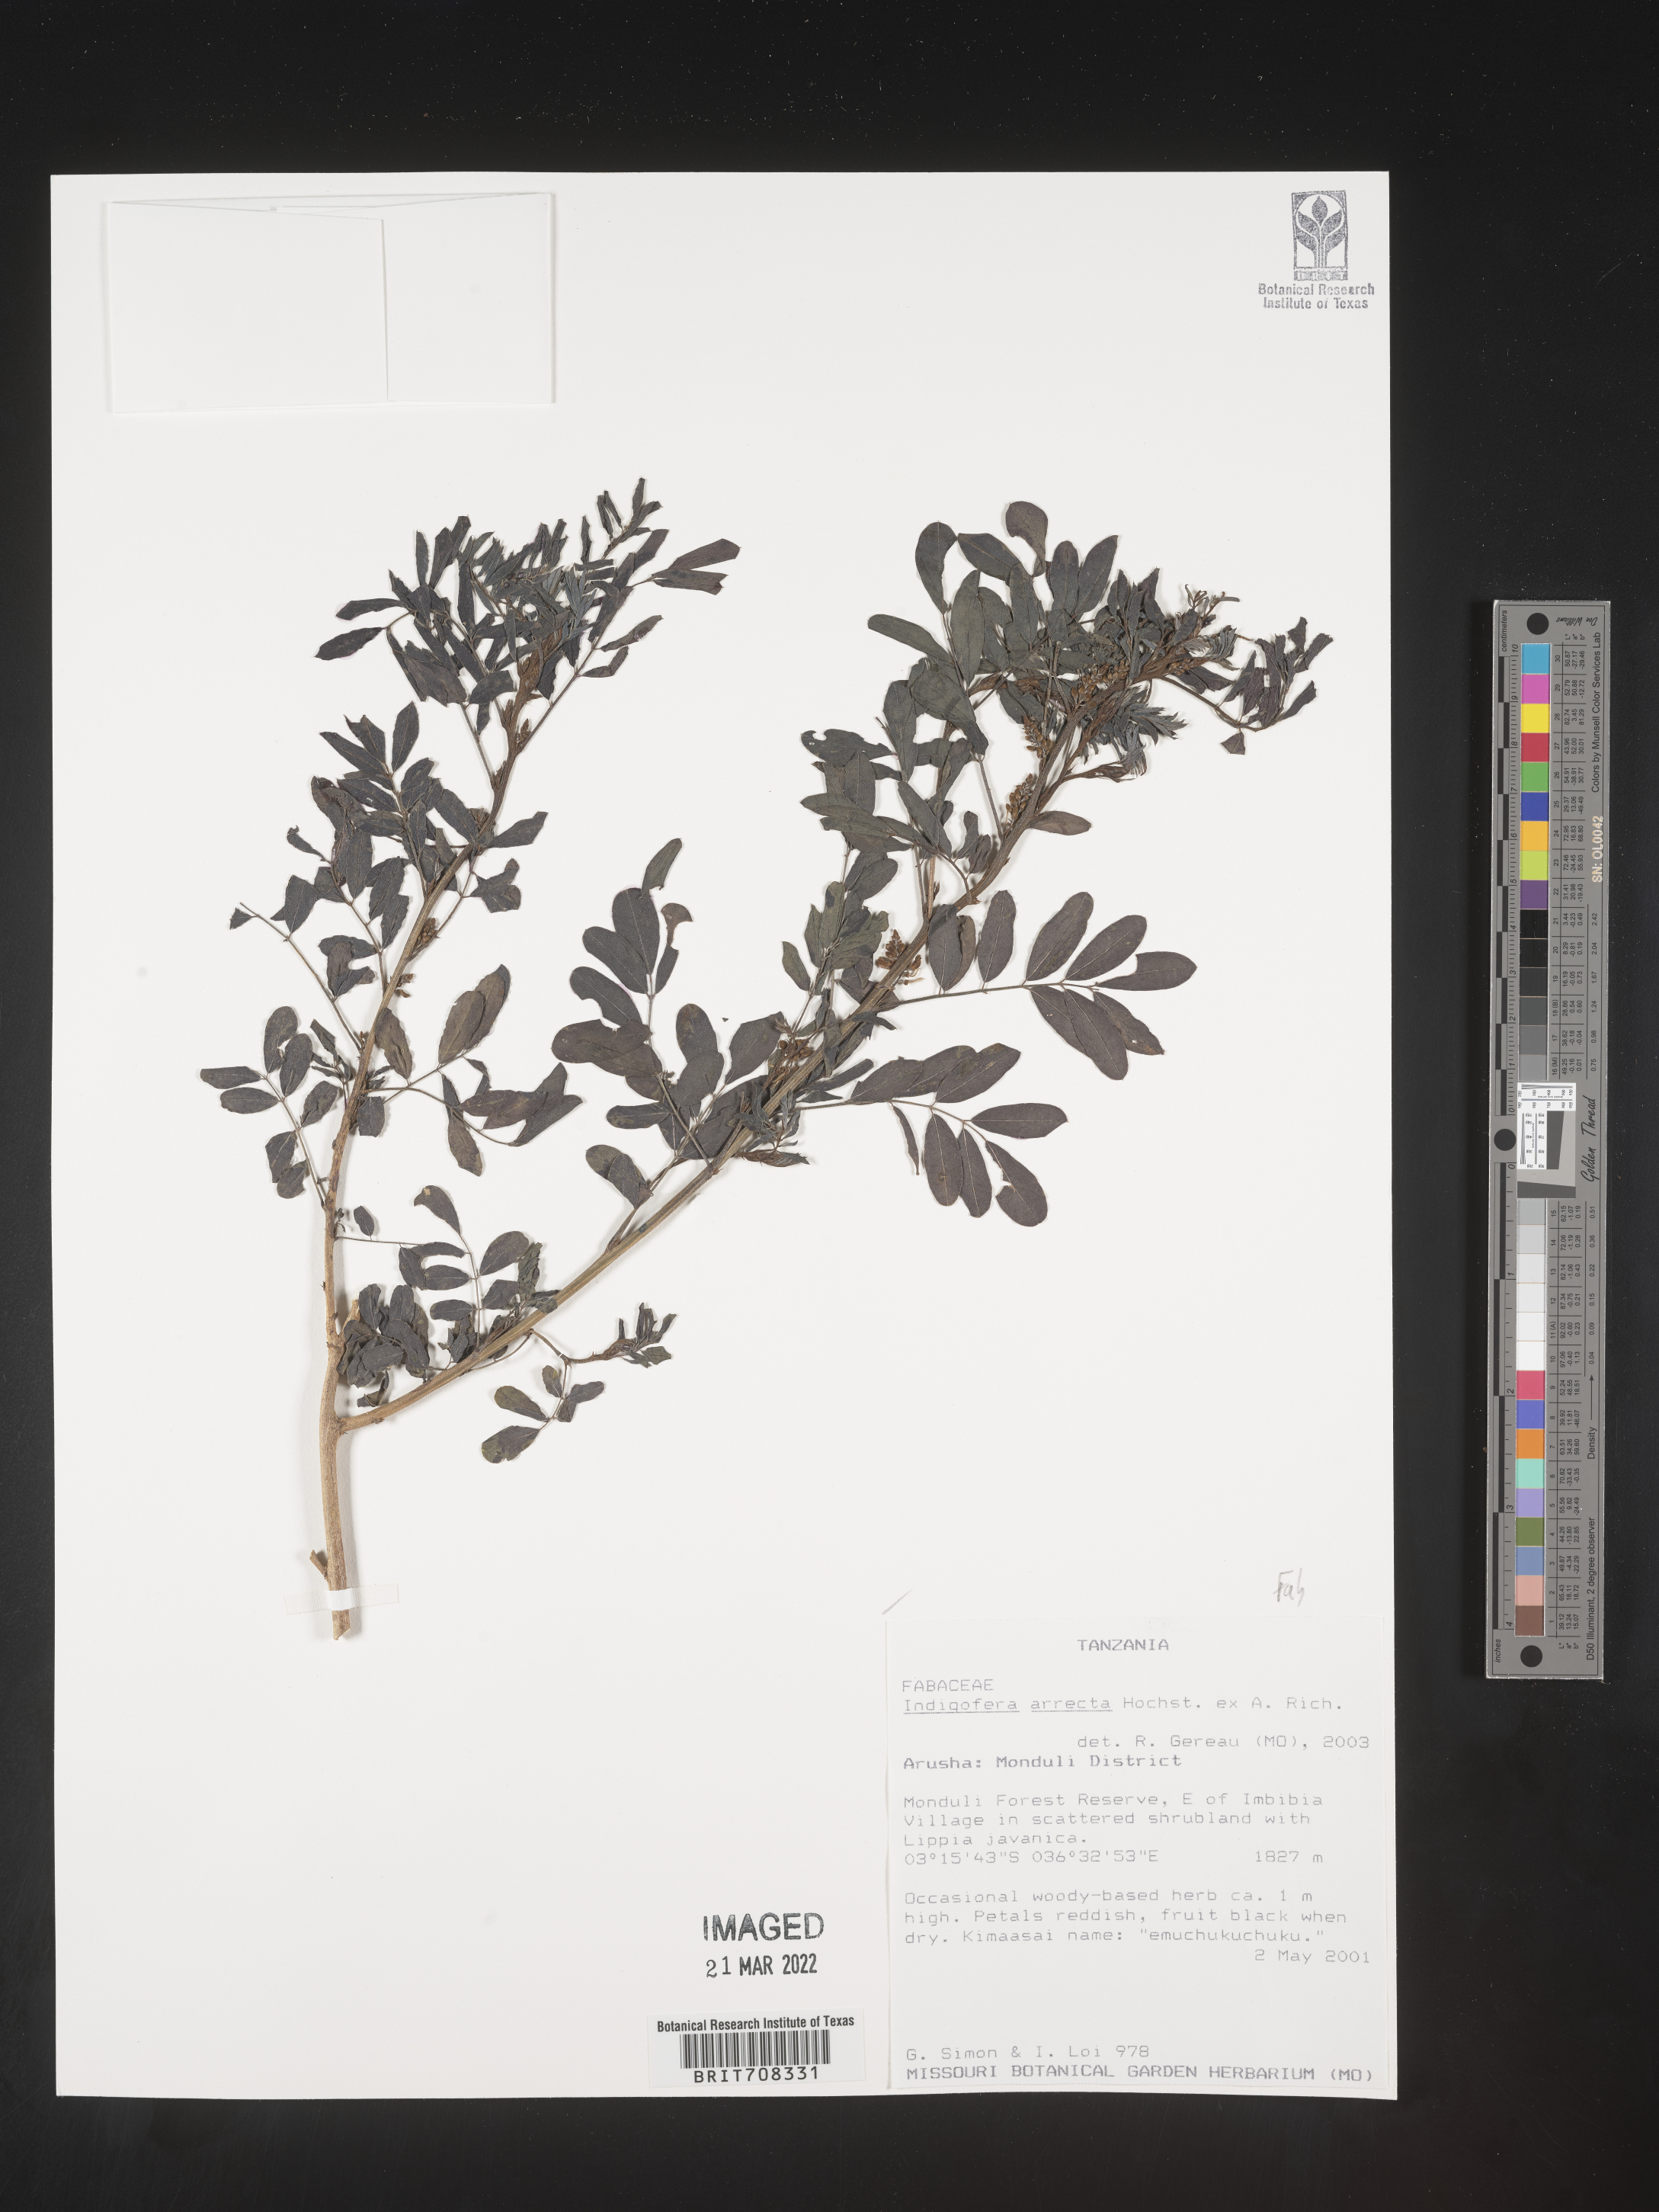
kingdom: Plantae
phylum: Tracheophyta
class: Magnoliopsida
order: Fabales
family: Fabaceae
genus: Indigofera
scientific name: Indigofera
